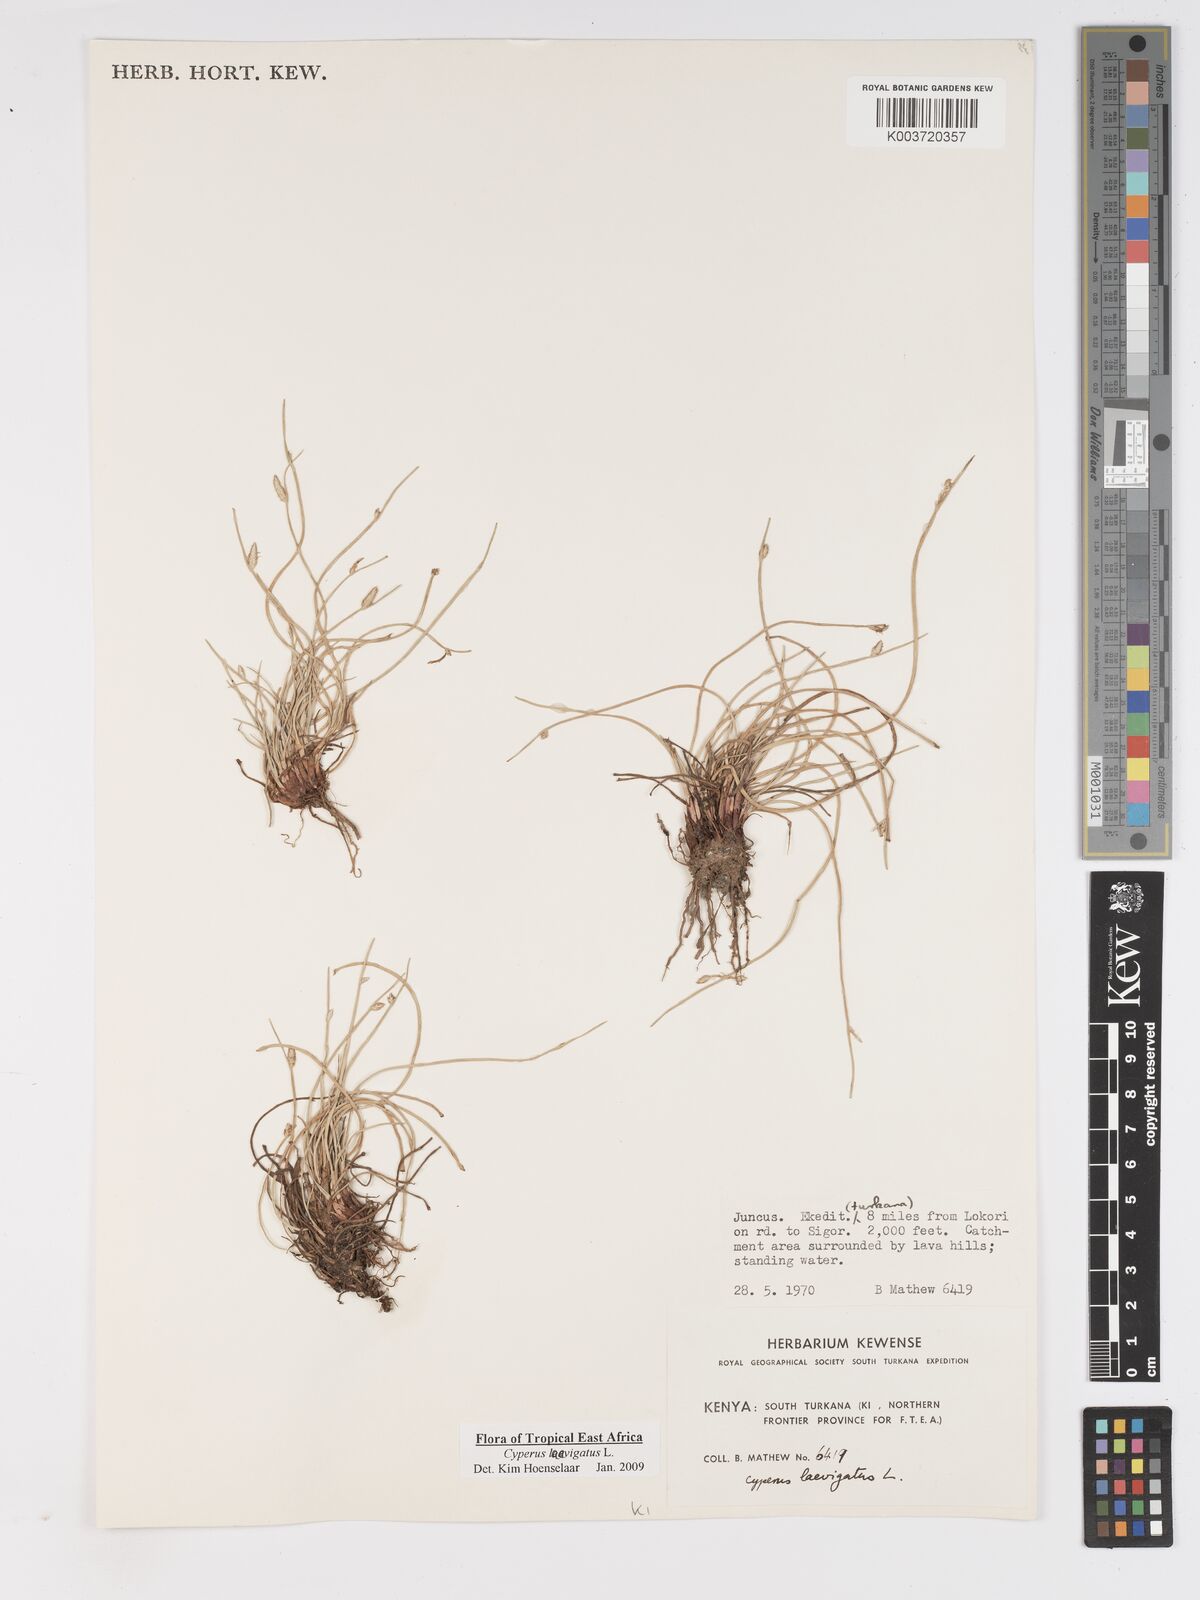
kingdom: Plantae
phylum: Tracheophyta
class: Liliopsida
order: Poales
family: Cyperaceae
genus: Cyperus
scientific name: Cyperus laevigatus
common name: Smooth flat sedge
